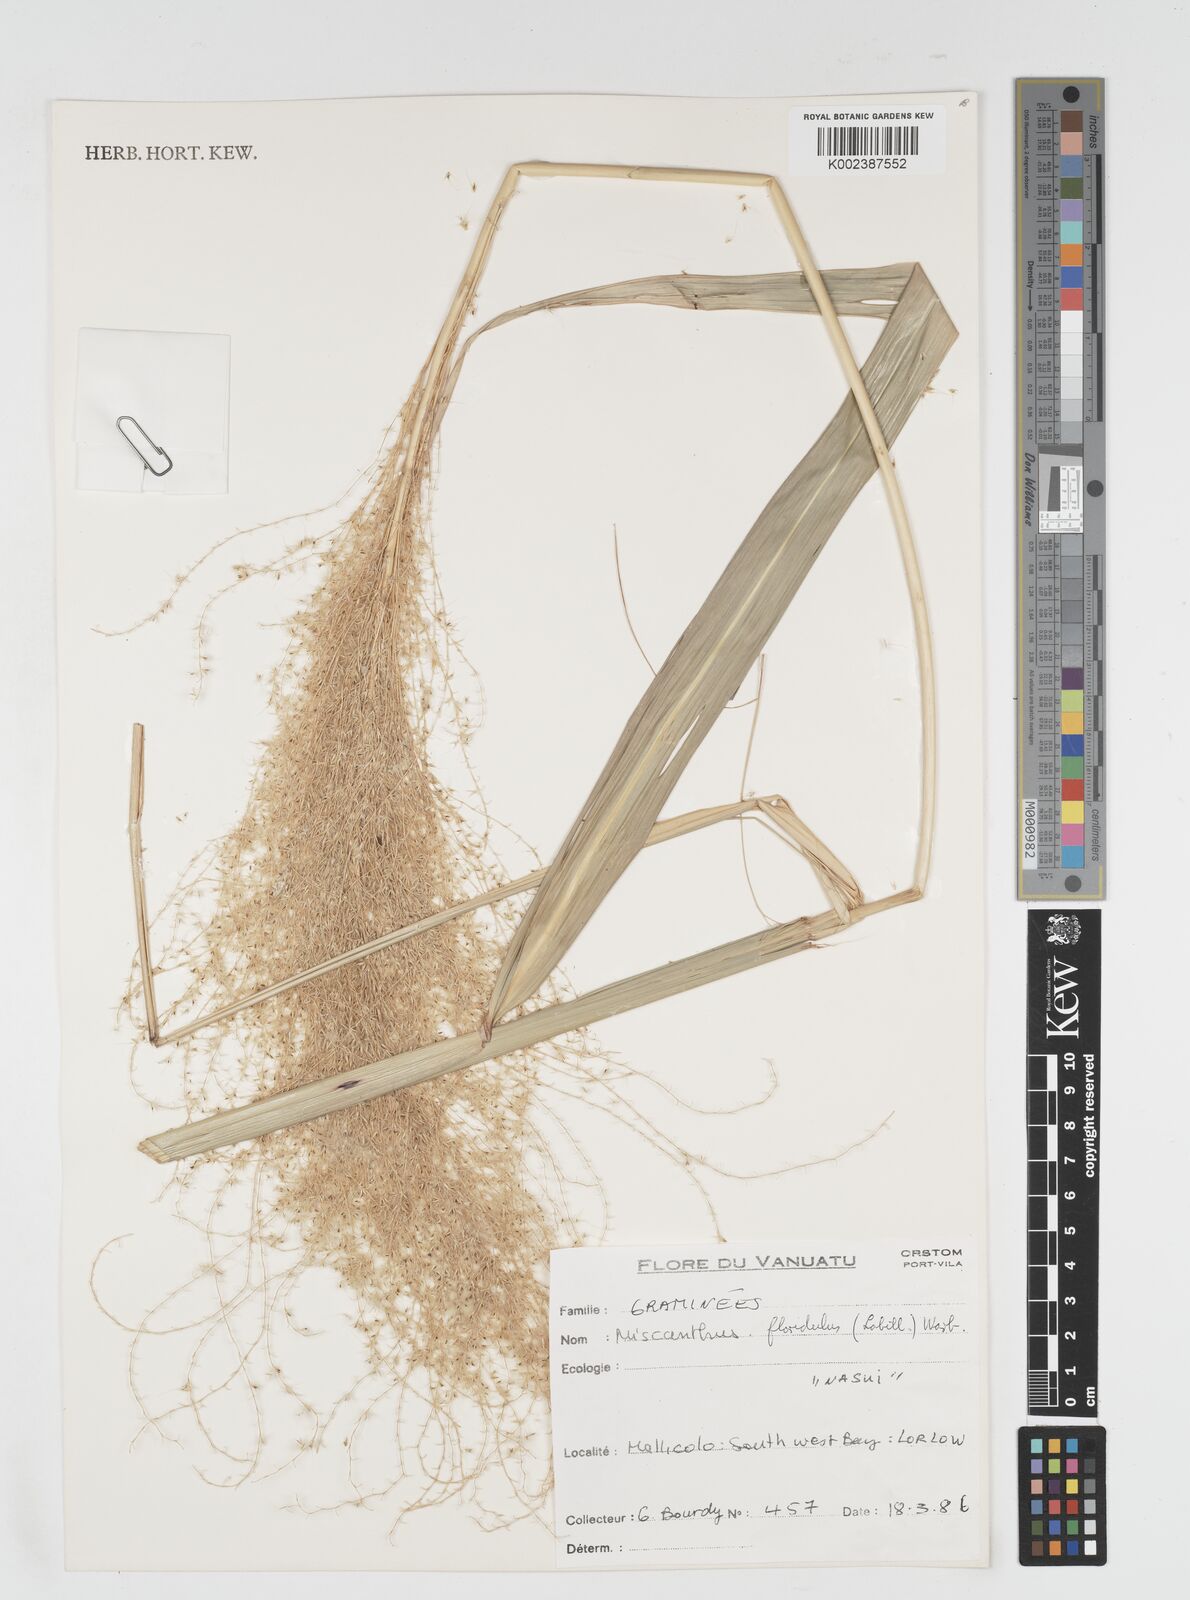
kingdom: Plantae
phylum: Tracheophyta
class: Liliopsida
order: Poales
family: Poaceae
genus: Miscanthus
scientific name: Miscanthus floridulus
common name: Pacific island silvergrass
